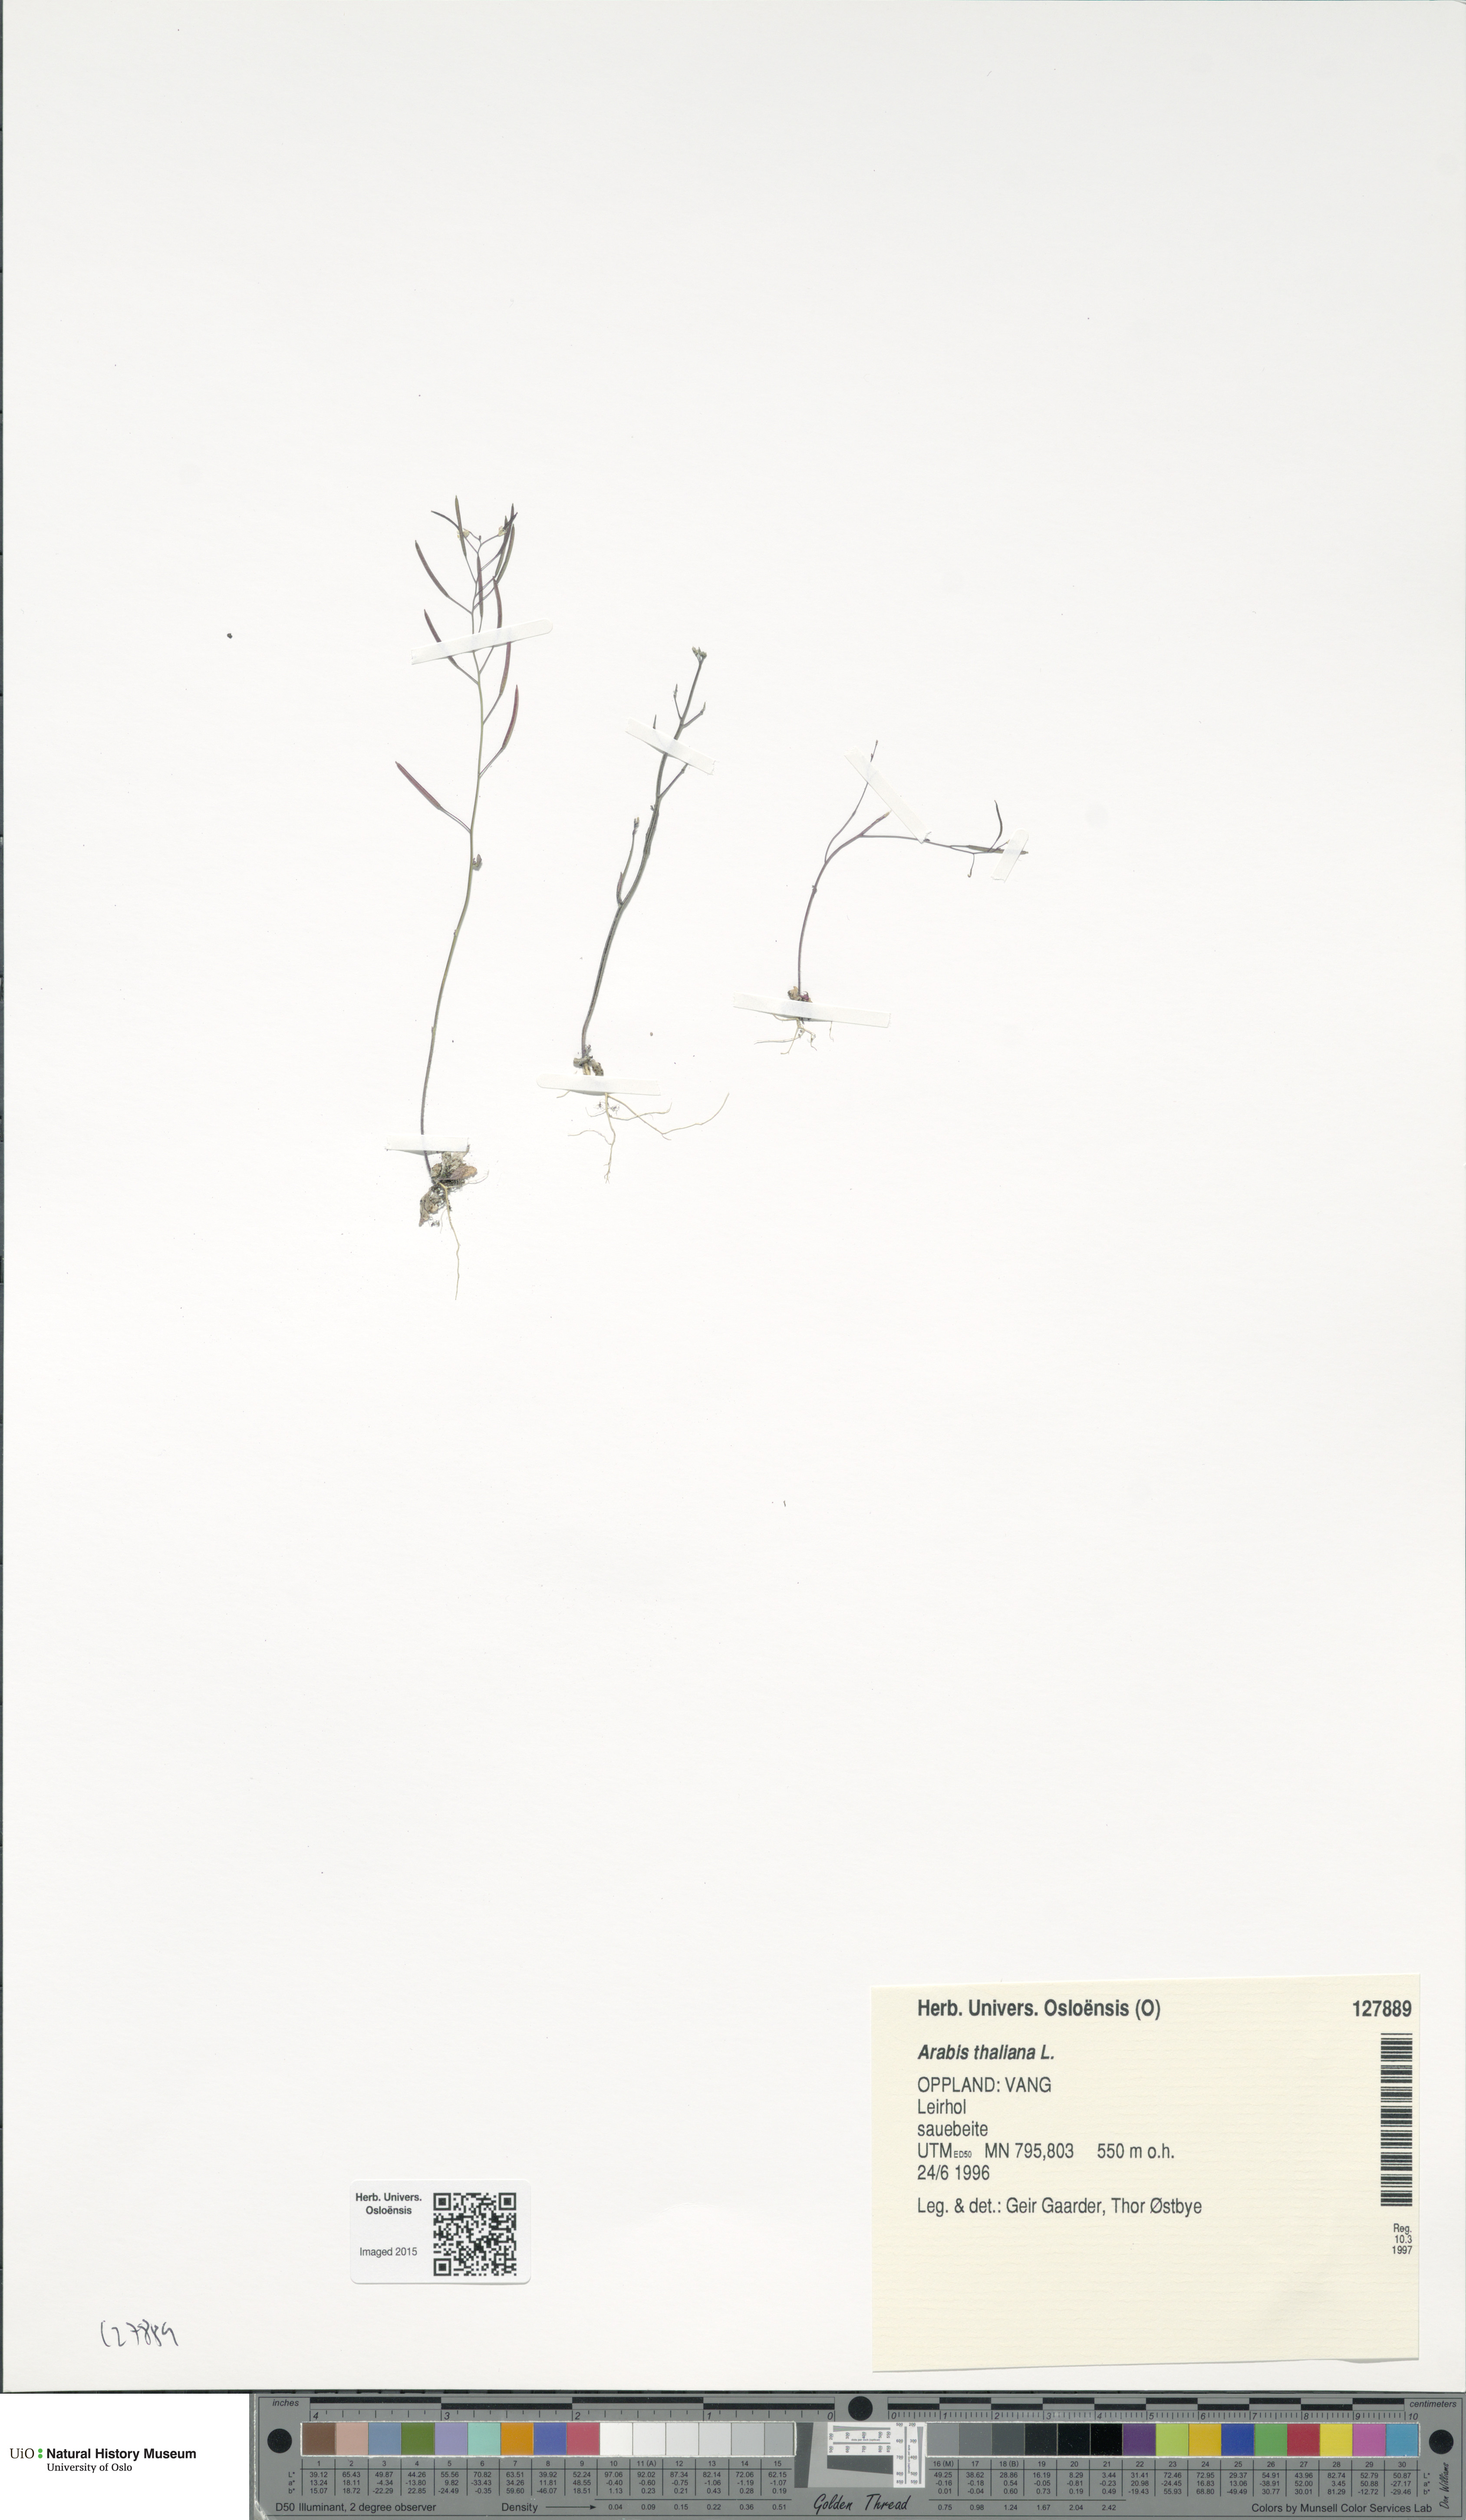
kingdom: Plantae
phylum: Tracheophyta
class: Magnoliopsida
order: Brassicales
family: Brassicaceae
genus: Arabidopsis
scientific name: Arabidopsis thaliana
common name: Thale cress
